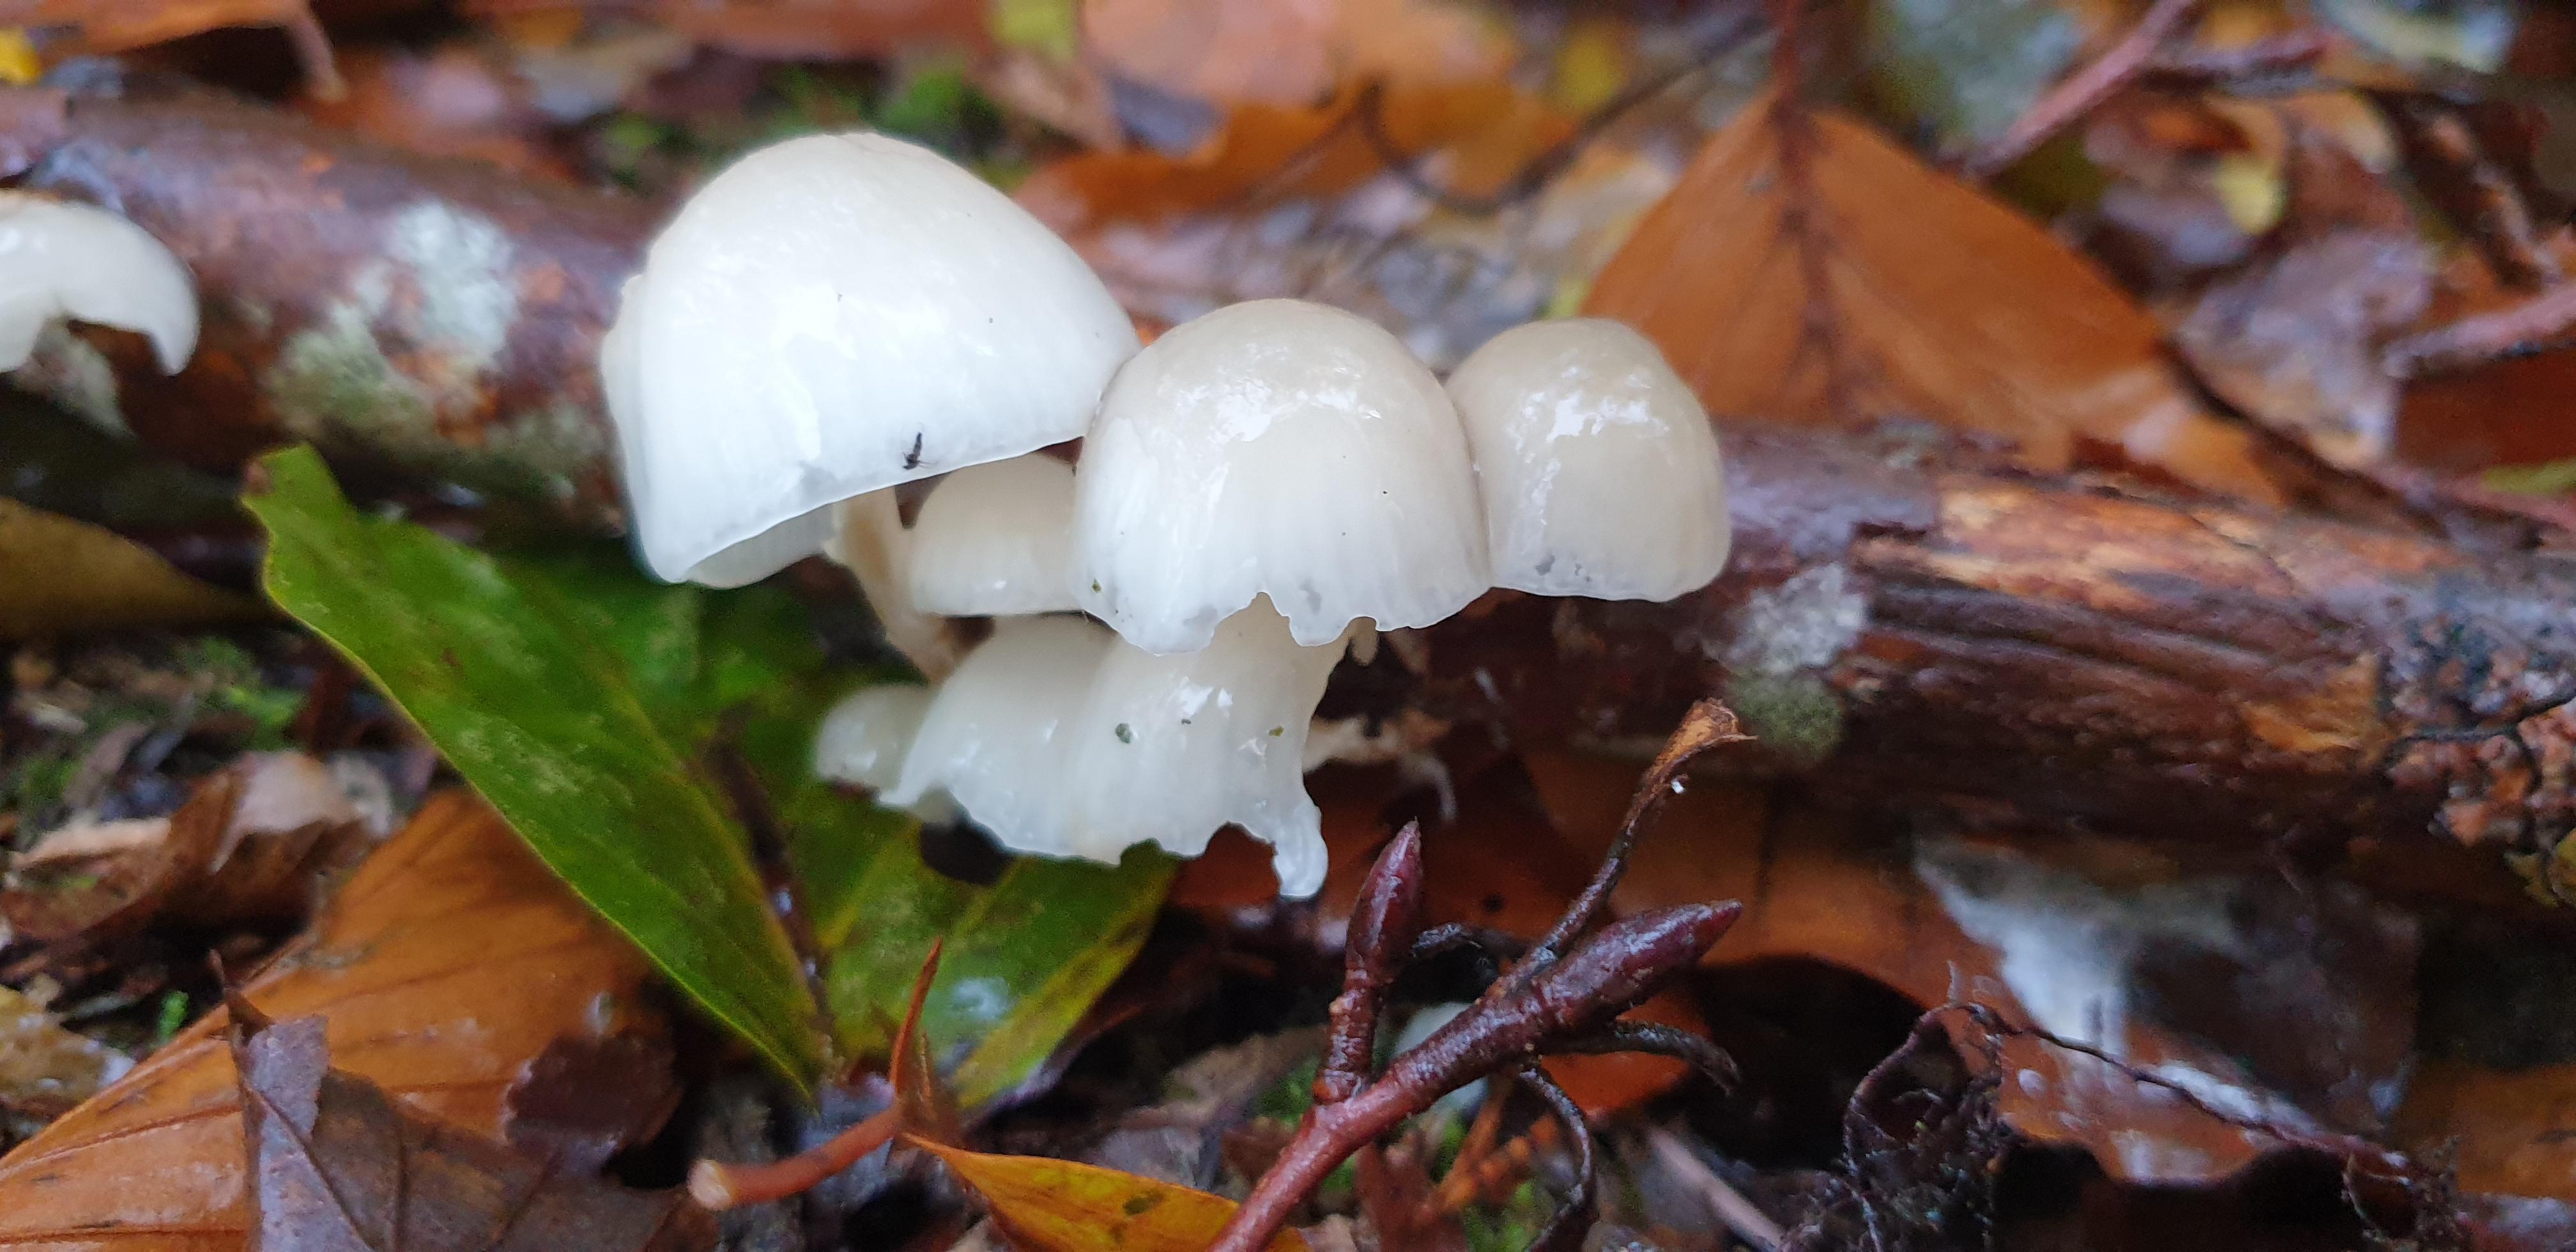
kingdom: Fungi
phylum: Basidiomycota
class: Agaricomycetes
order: Agaricales
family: Physalacriaceae
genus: Mucidula
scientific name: Mucidula mucida
